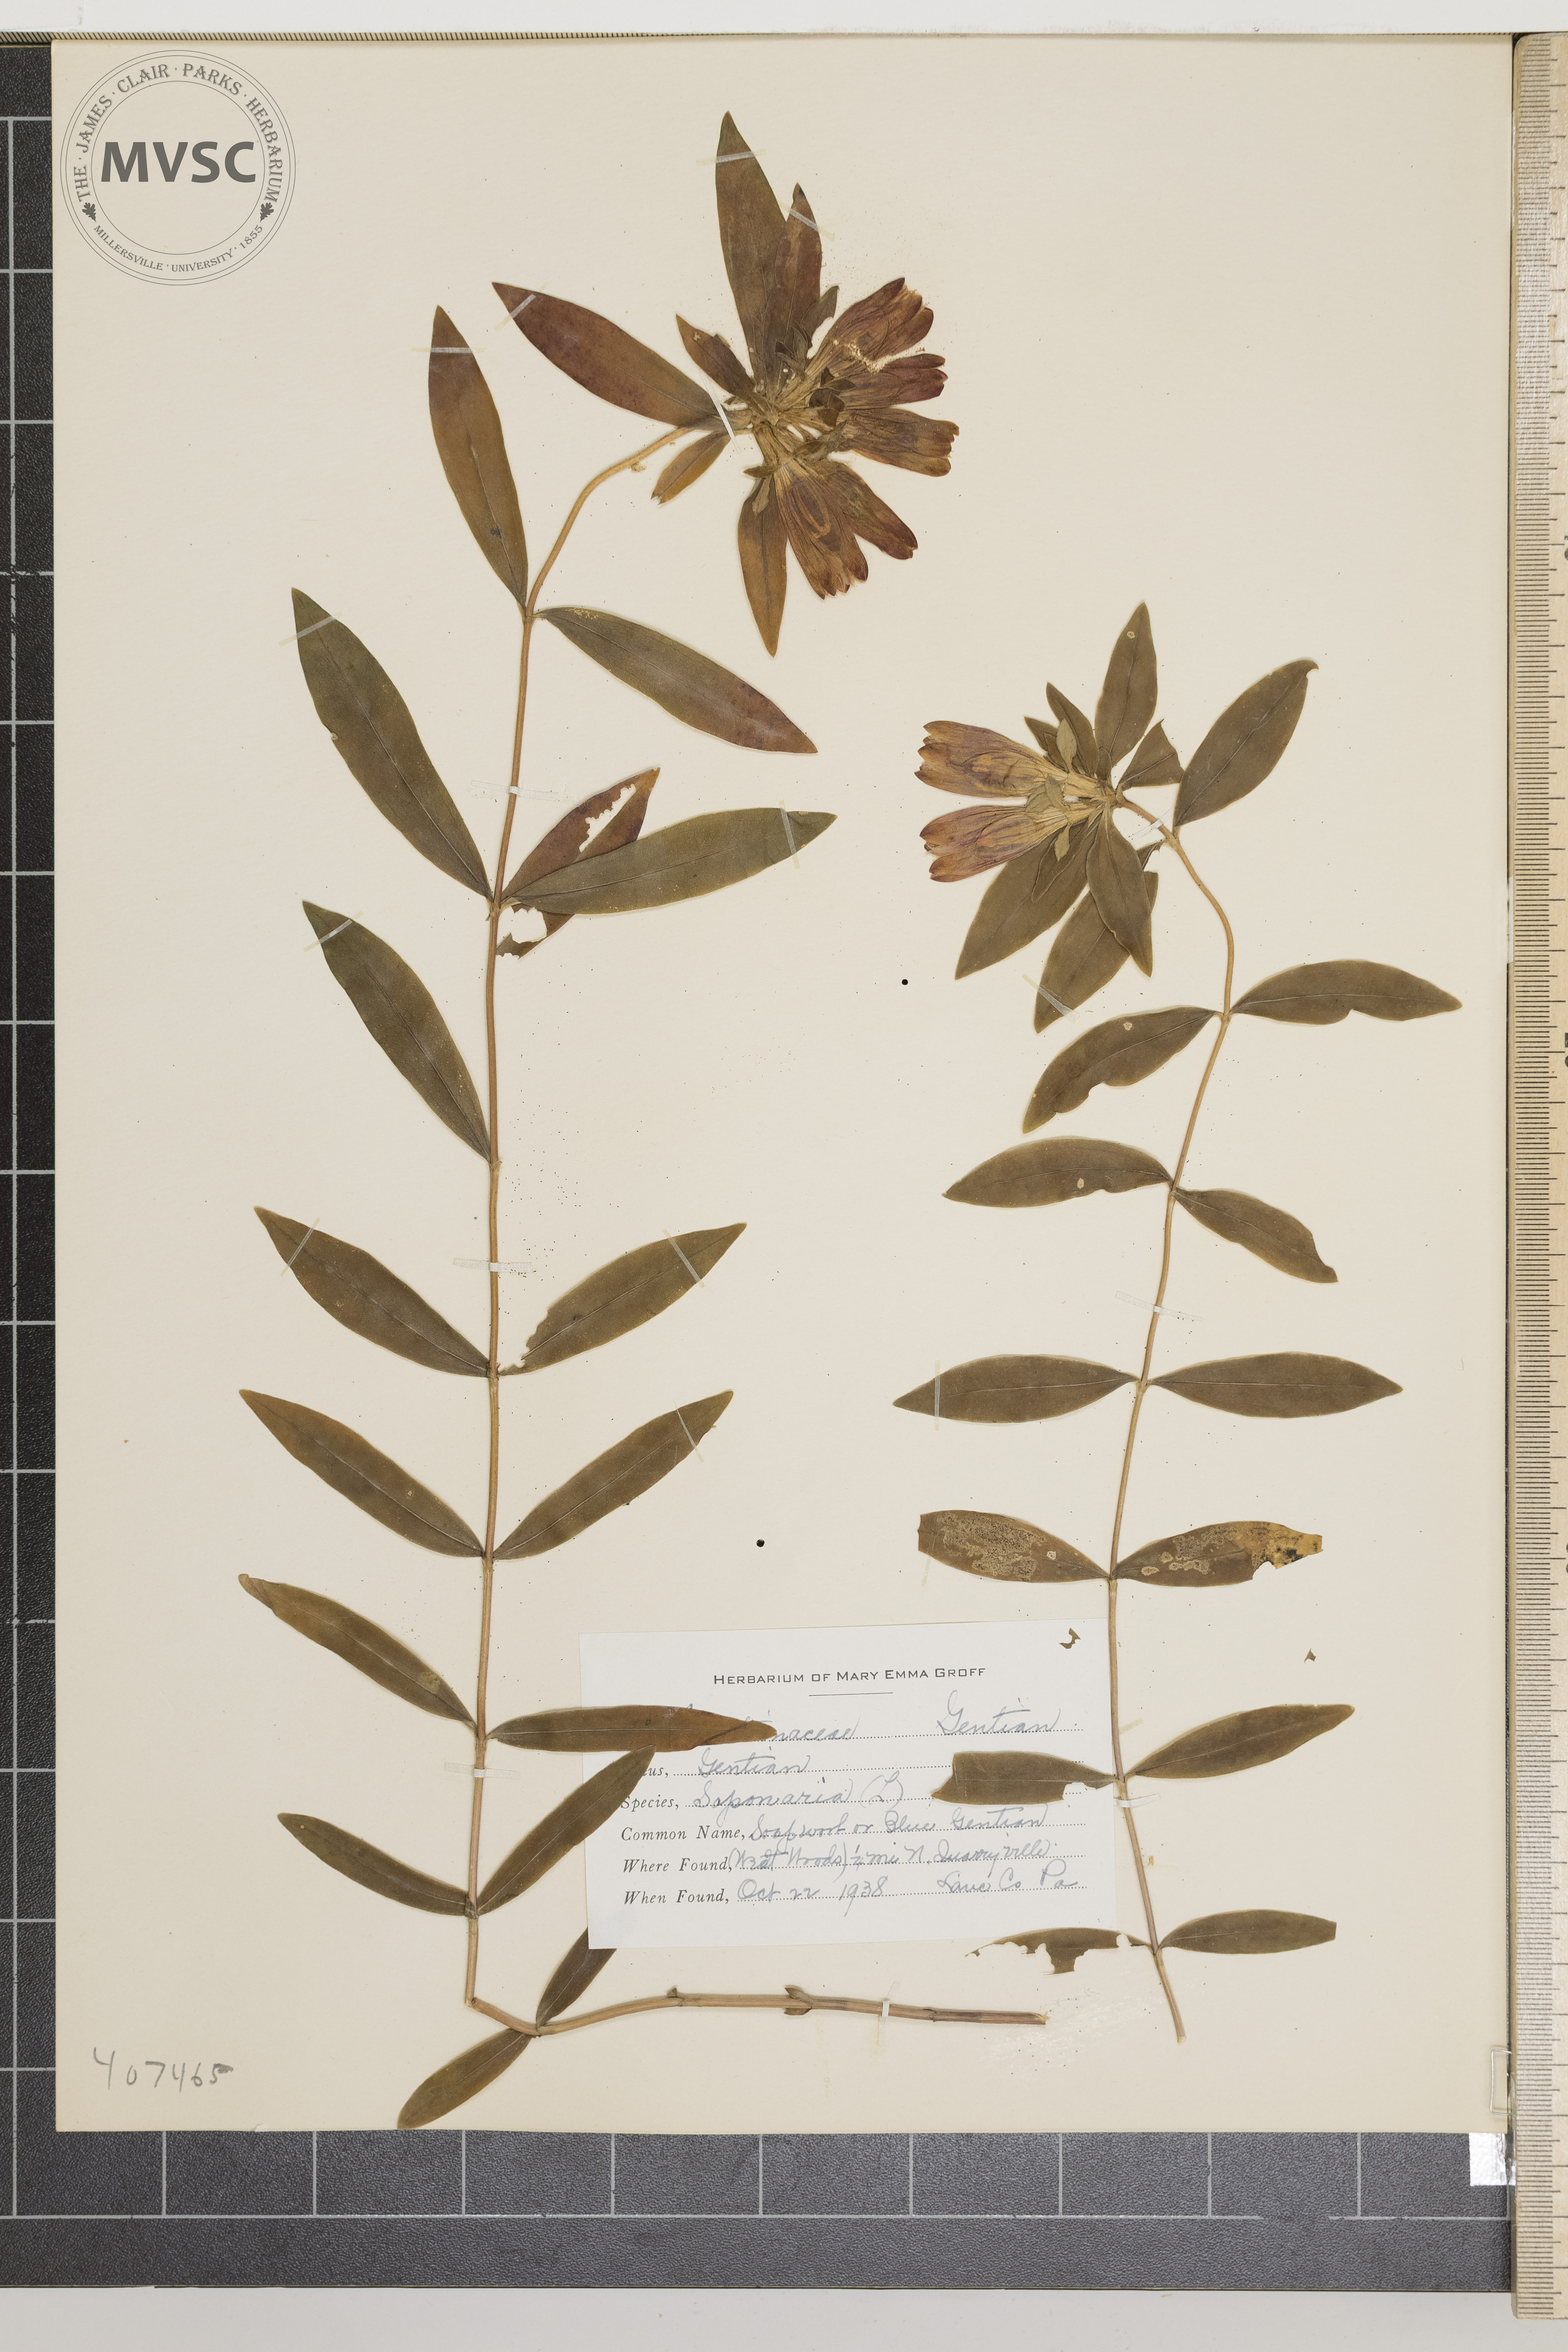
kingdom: Plantae
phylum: Tracheophyta
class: Magnoliopsida
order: Gentianales
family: Gentianaceae
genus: Gentiana
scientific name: Gentiana saponaria
